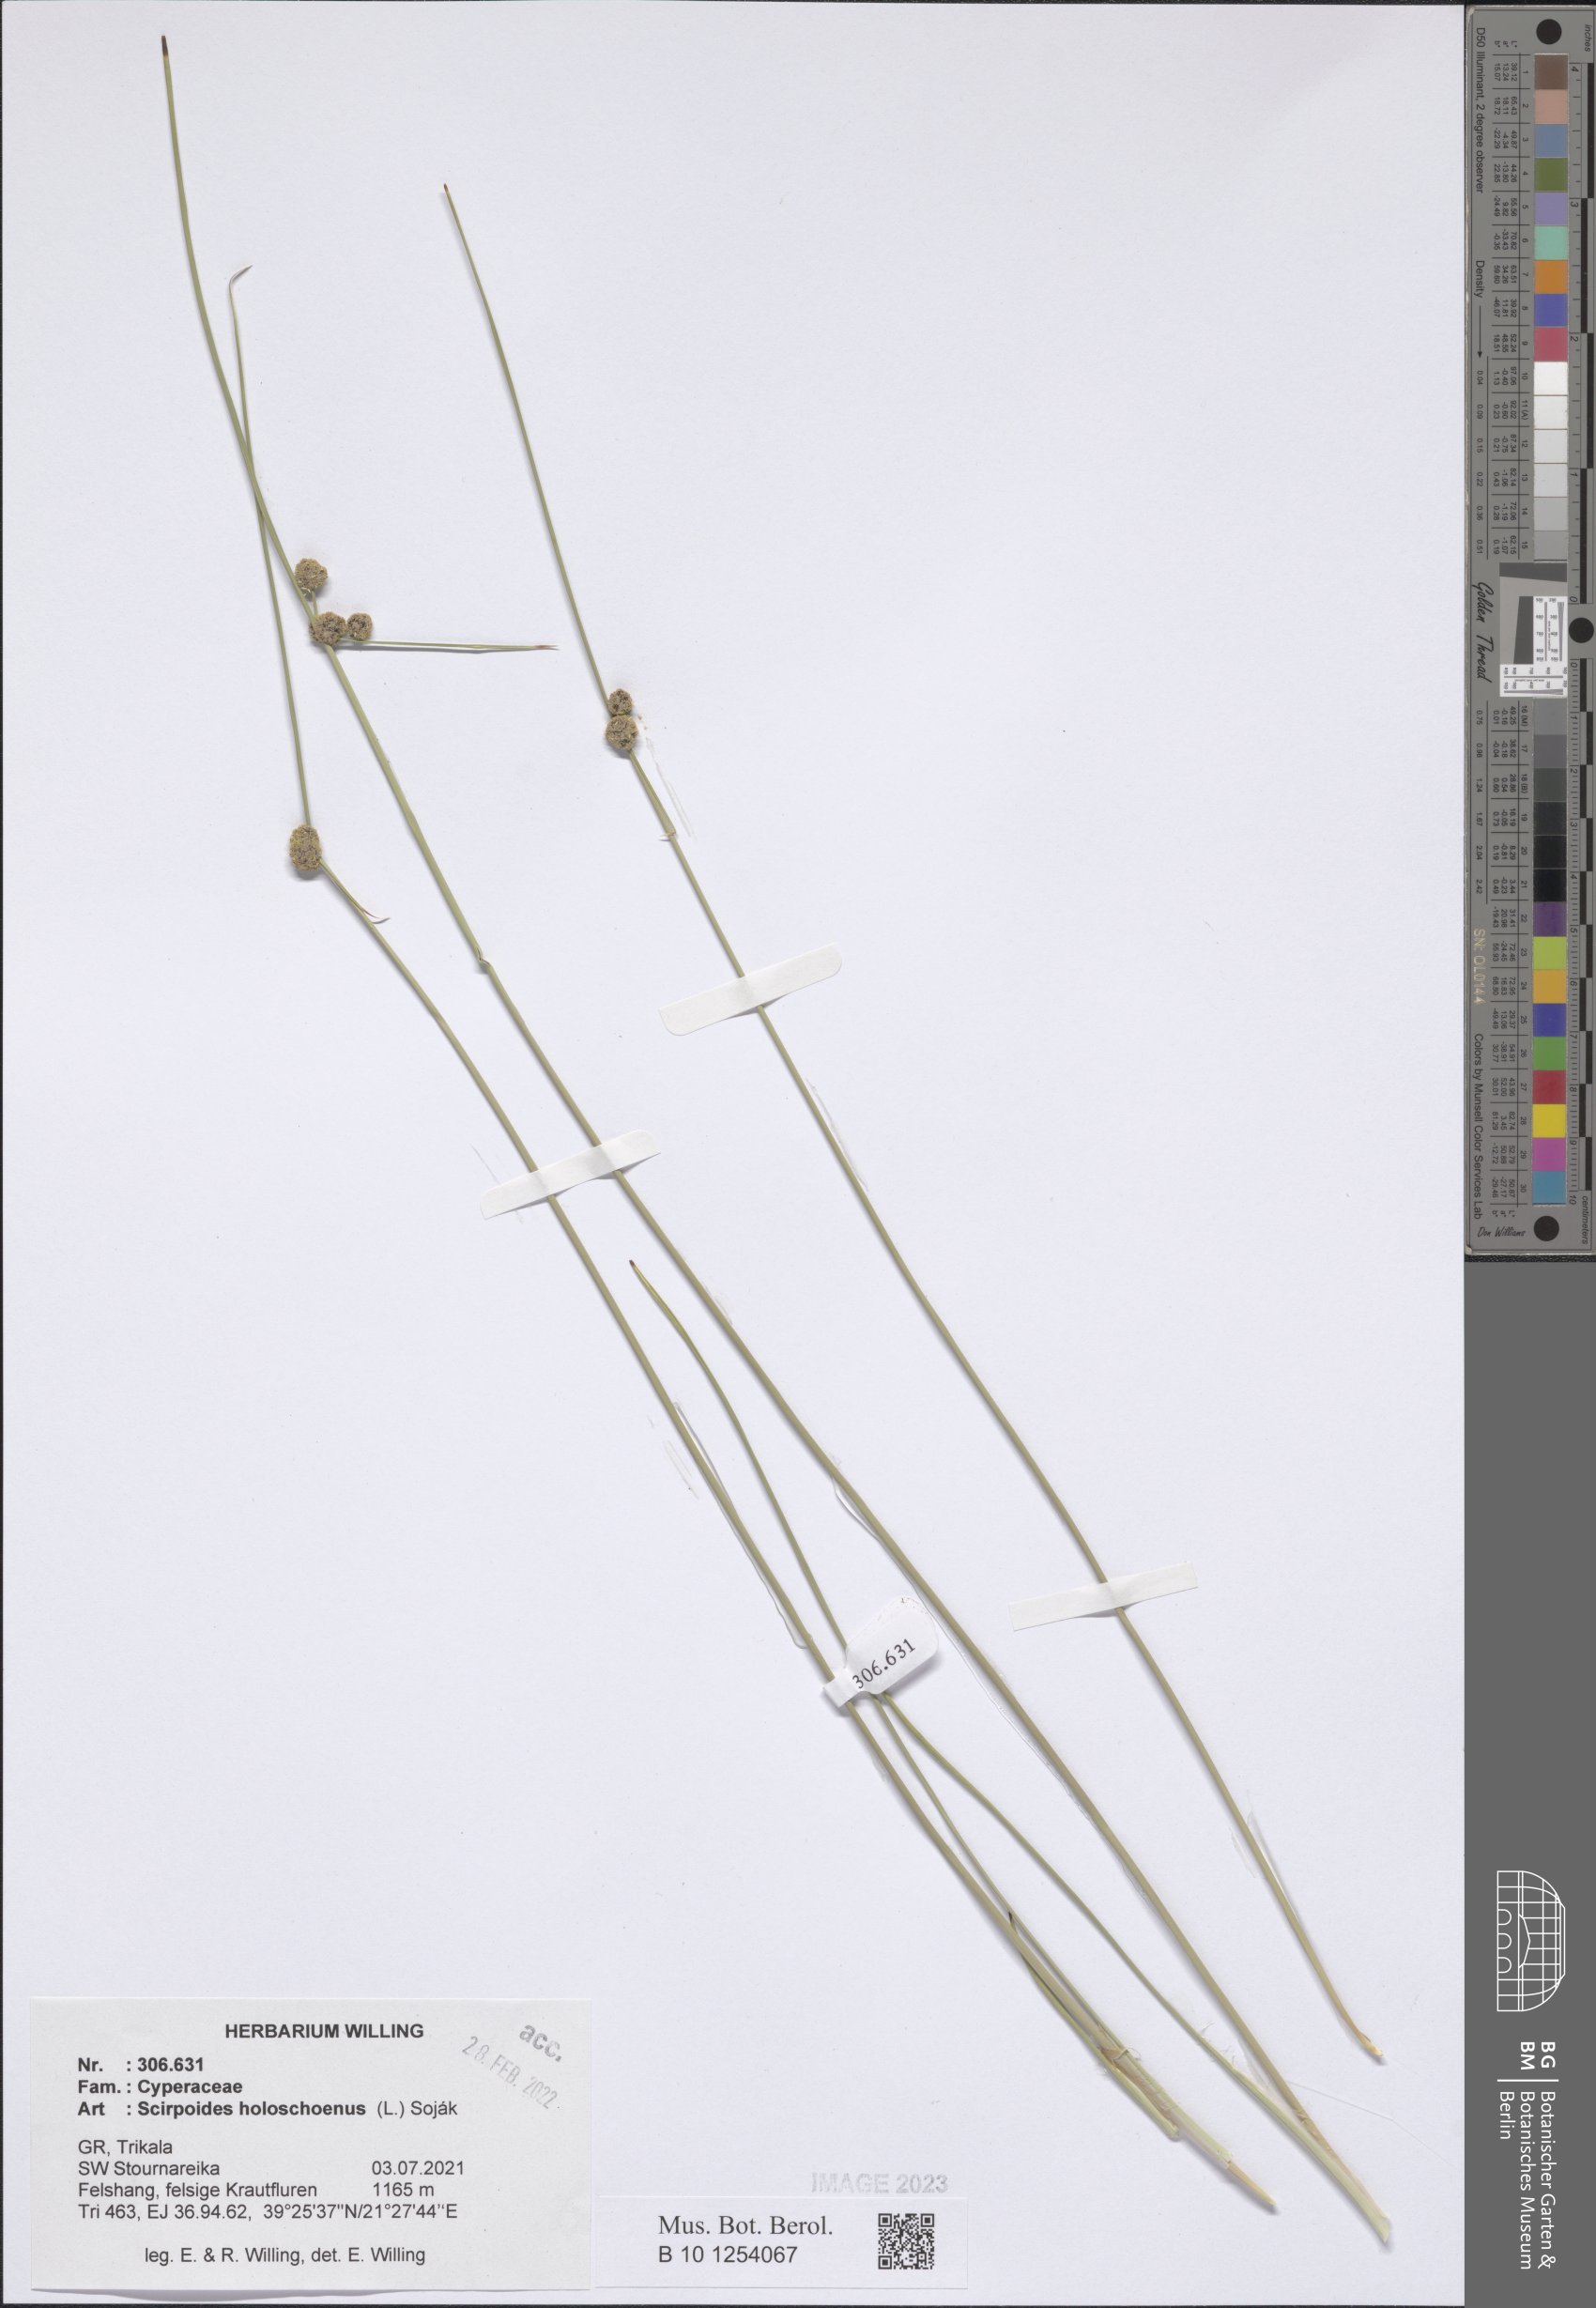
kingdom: Plantae
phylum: Tracheophyta
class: Liliopsida
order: Poales
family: Cyperaceae
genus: Scirpoides
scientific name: Scirpoides
